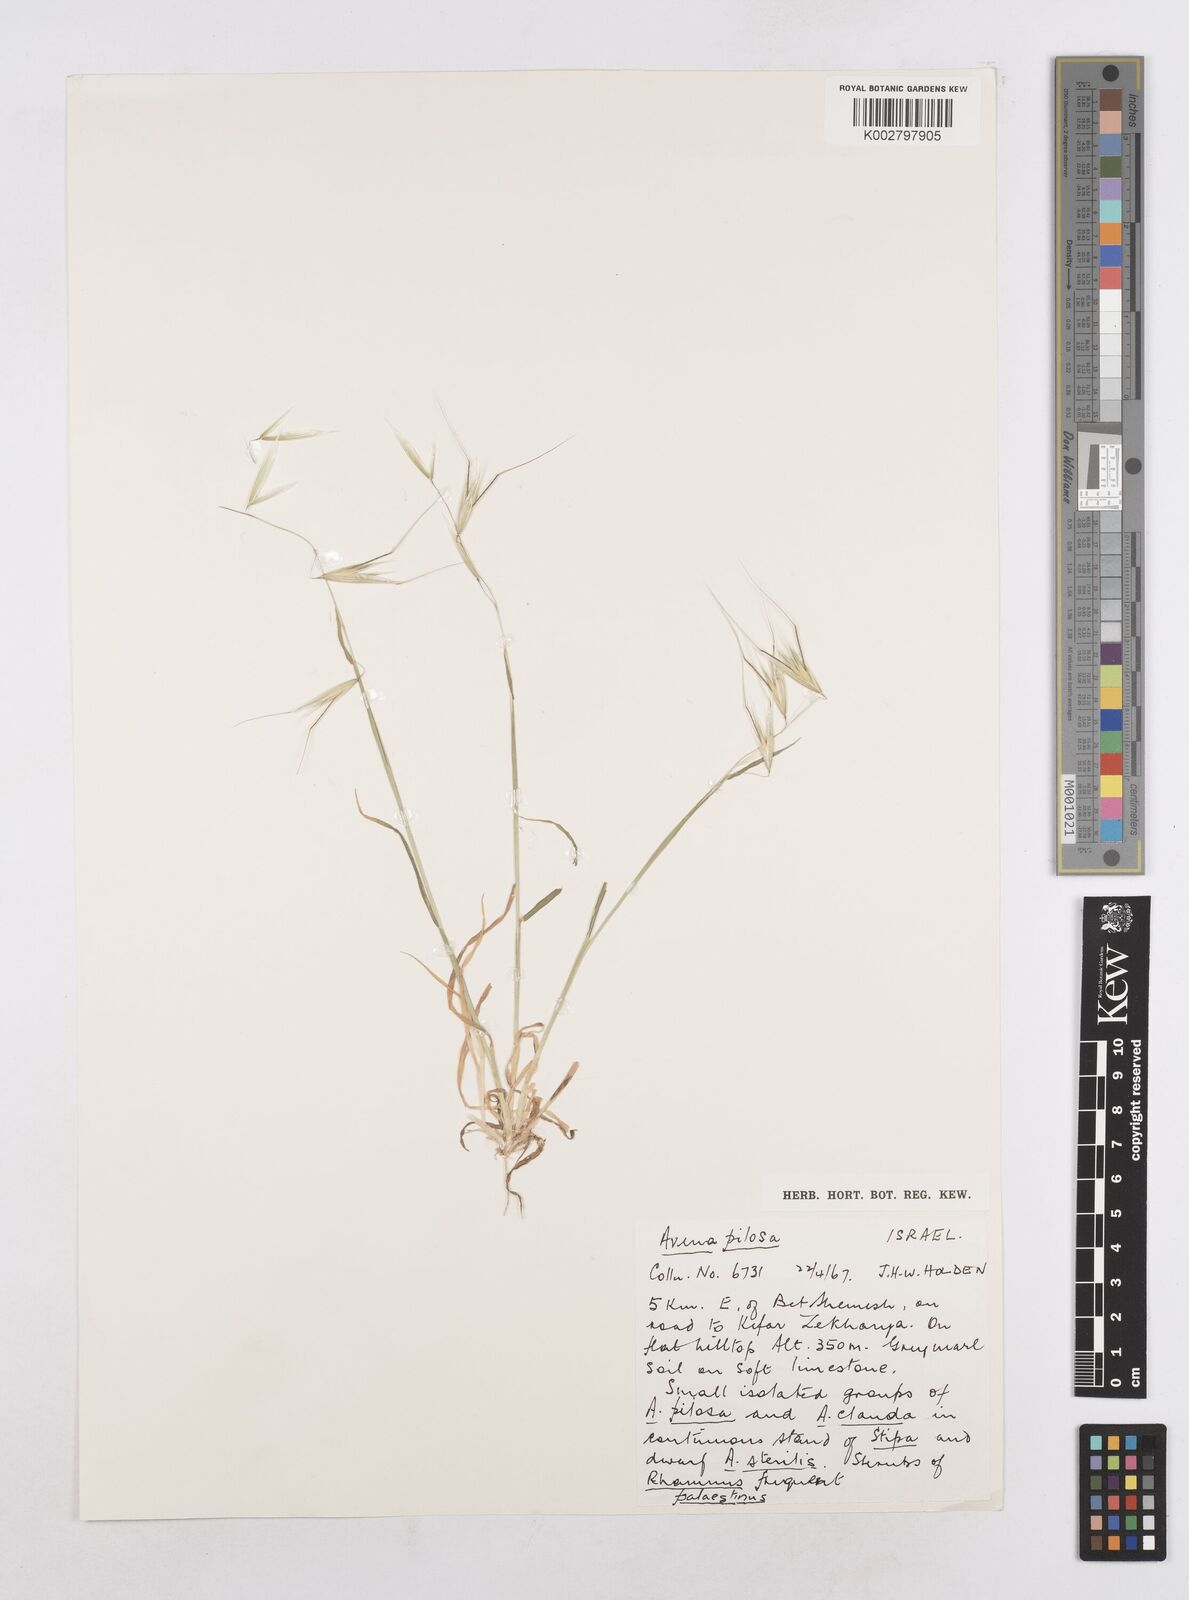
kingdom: Plantae
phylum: Tracheophyta
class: Liliopsida
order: Poales
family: Poaceae
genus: Avena
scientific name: Avena
